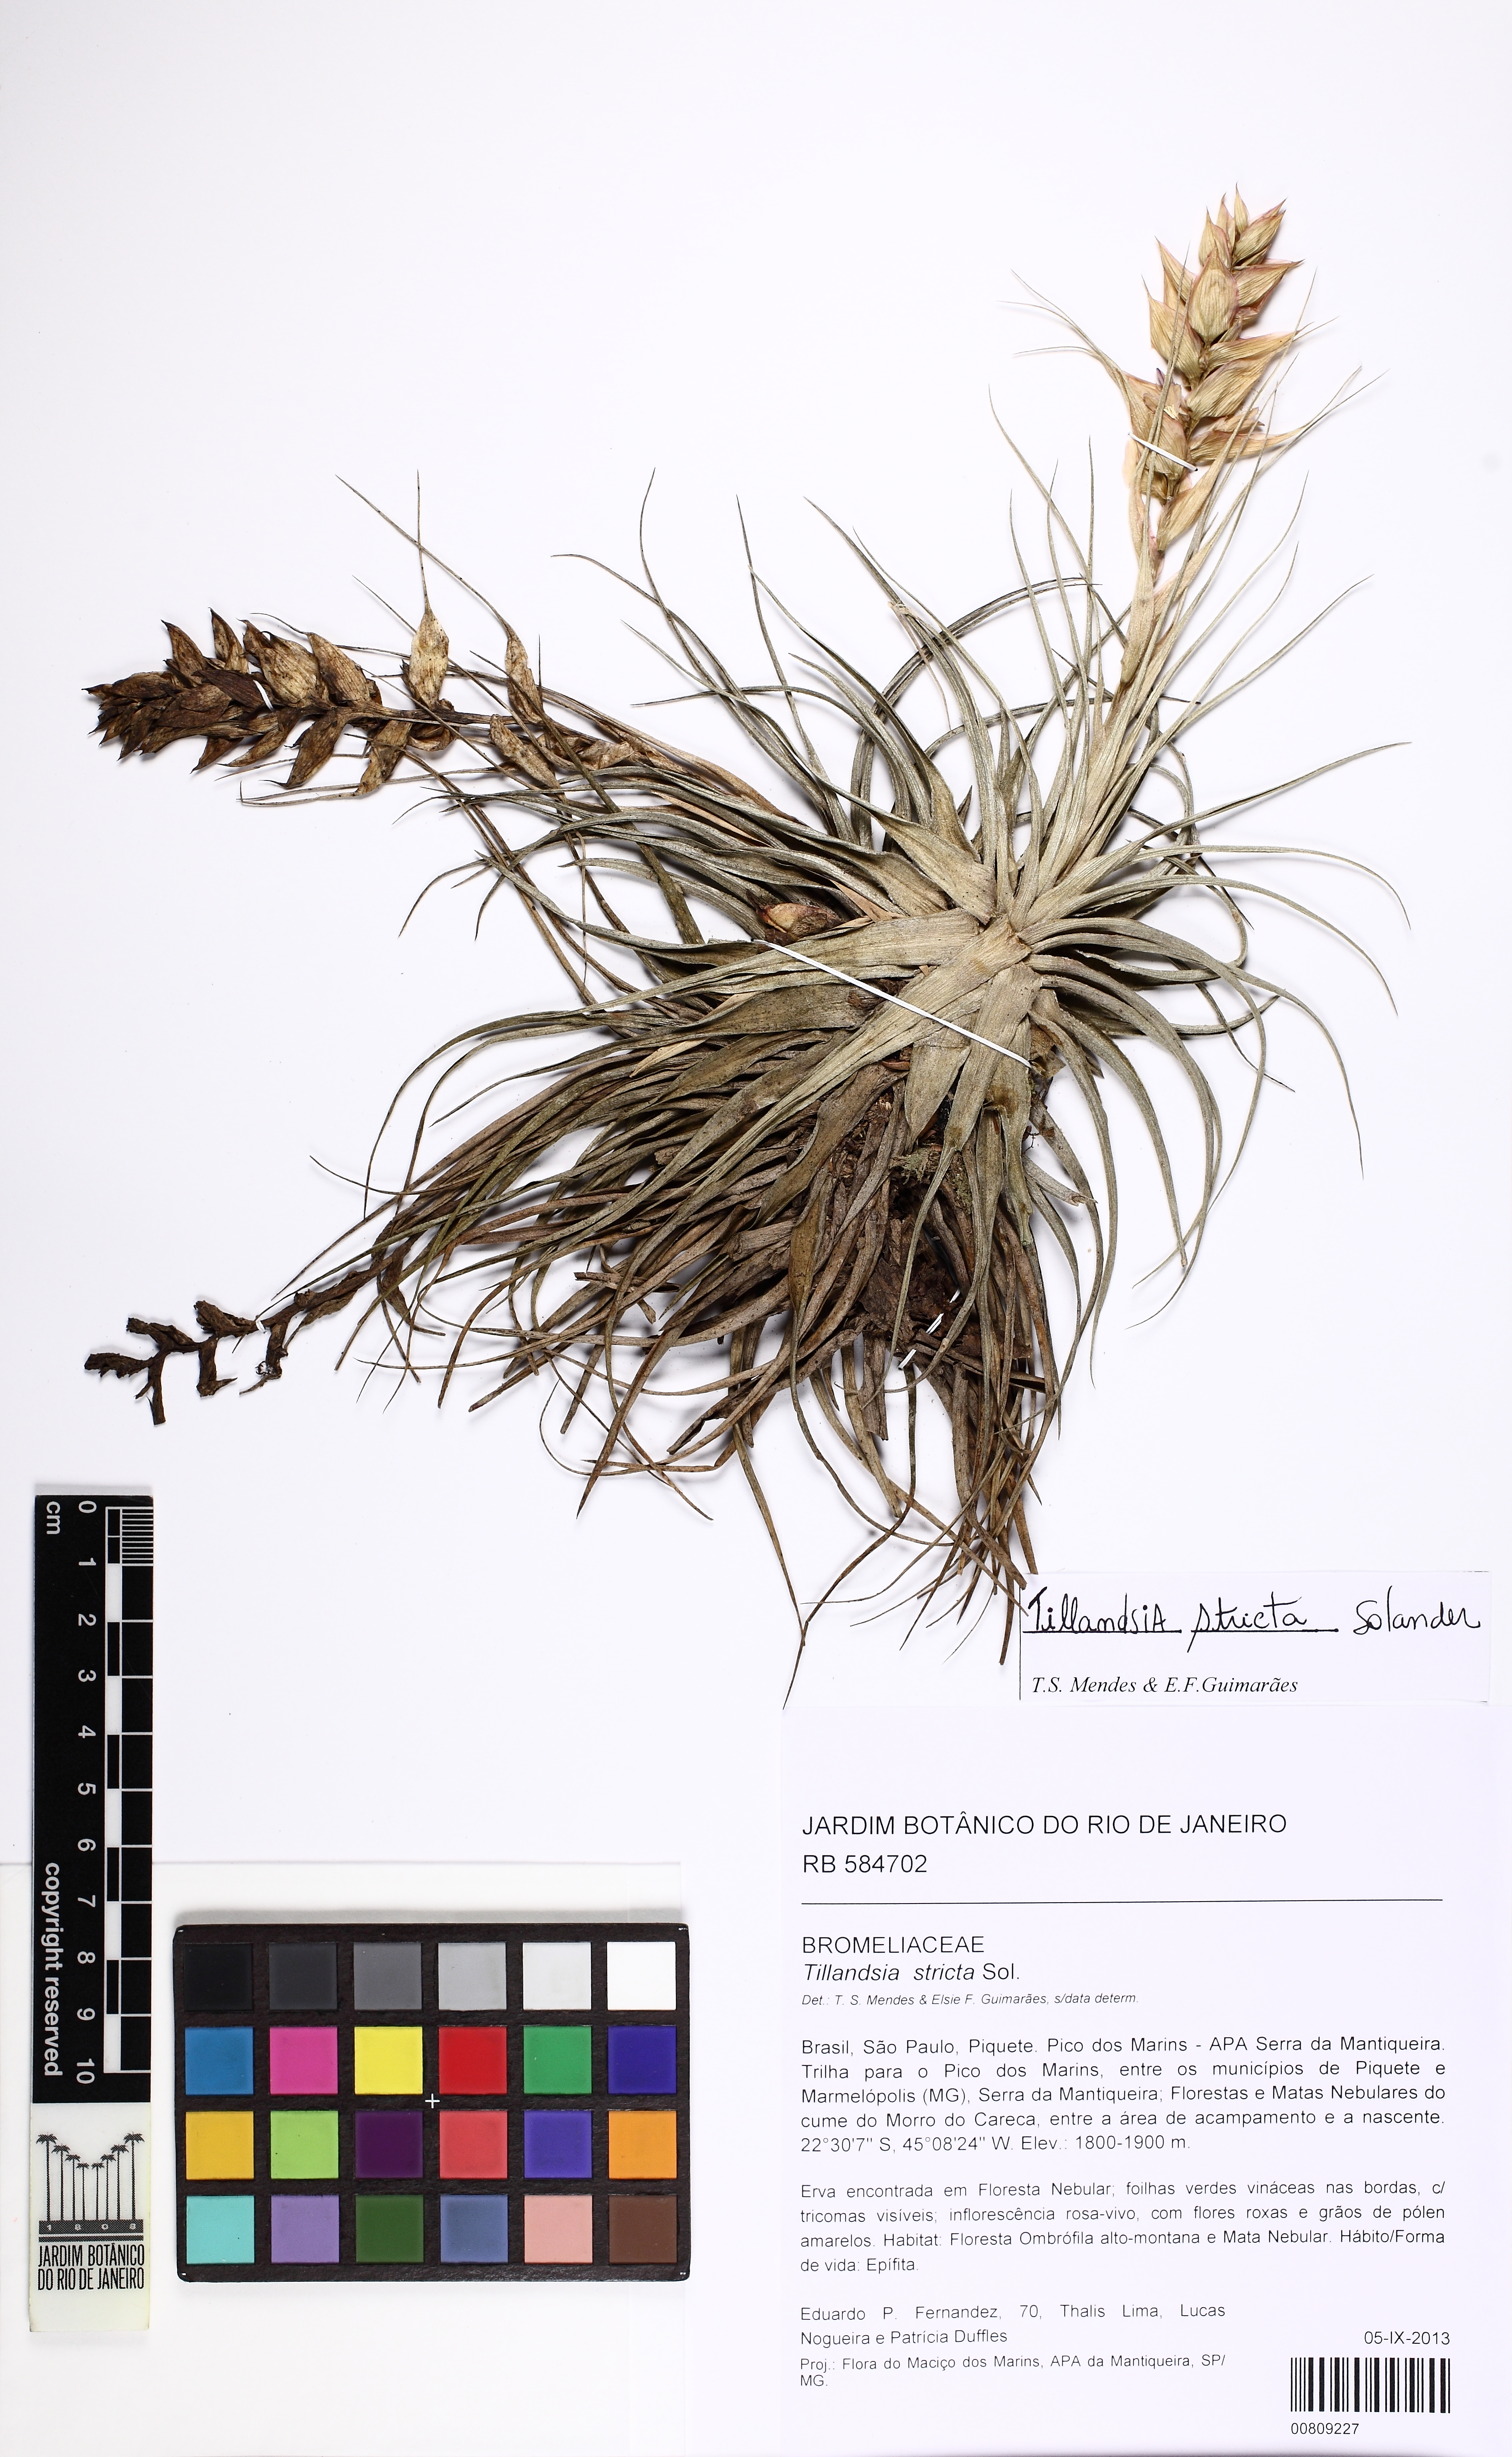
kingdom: Plantae
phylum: Tracheophyta
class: Liliopsida
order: Poales
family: Bromeliaceae
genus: Tillandsia
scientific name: Tillandsia stricta
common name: Airplant
